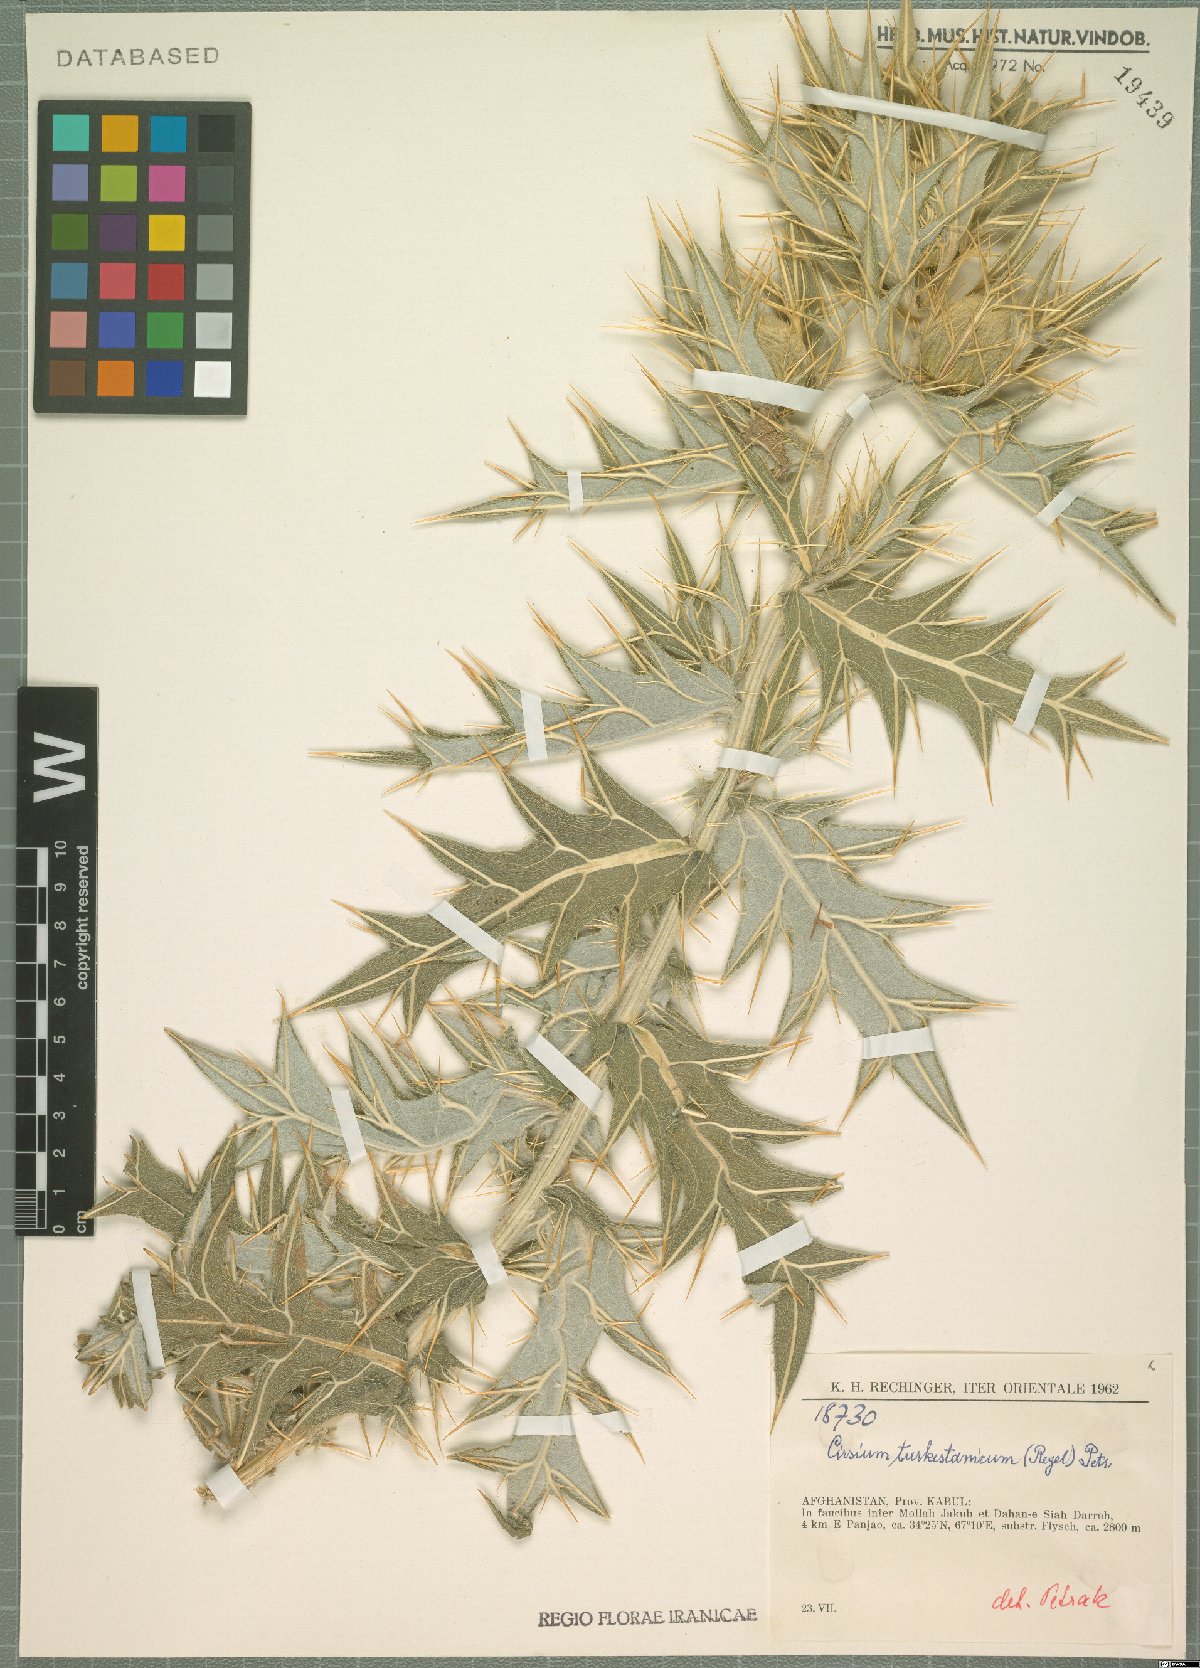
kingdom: Plantae
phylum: Tracheophyta
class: Magnoliopsida
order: Asterales
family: Asteraceae
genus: Lophiolepis
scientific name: Lophiolepis turkestanica
